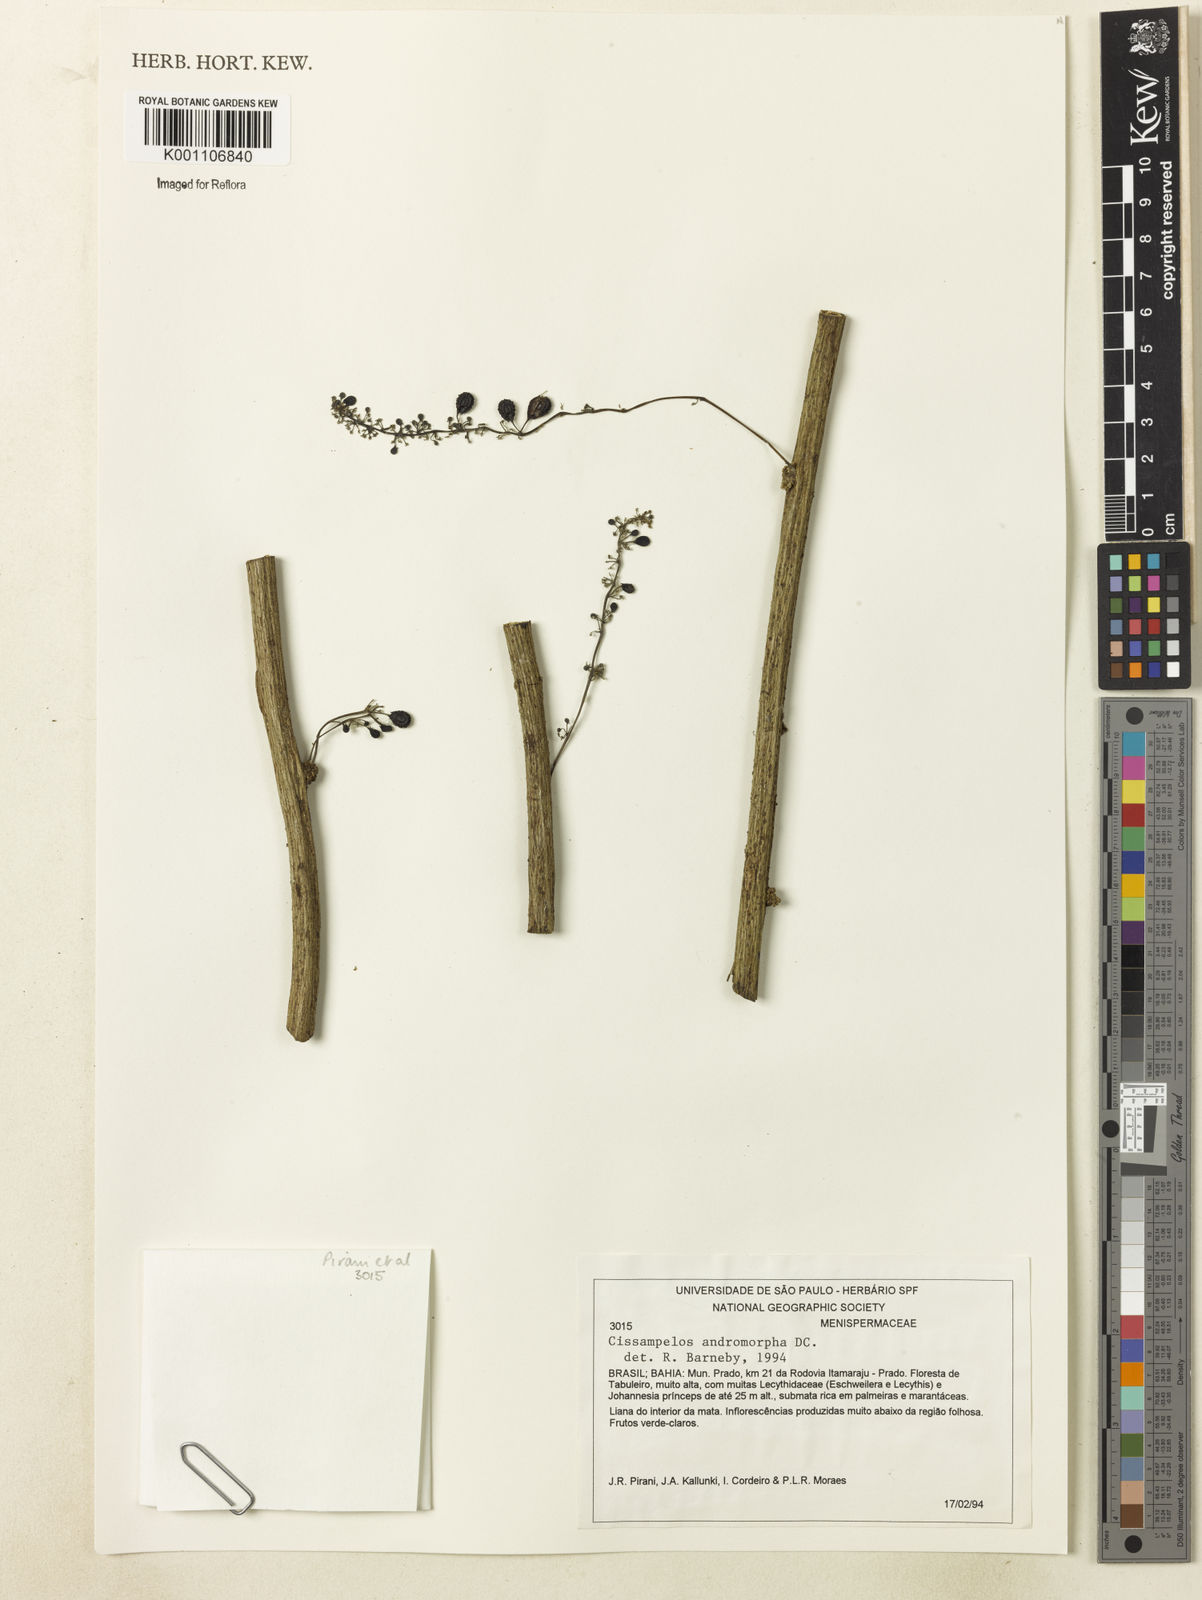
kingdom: Plantae
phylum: Tracheophyta
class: Magnoliopsida
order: Ranunculales
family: Menispermaceae
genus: Cissampelos
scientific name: Cissampelos andromorpha
